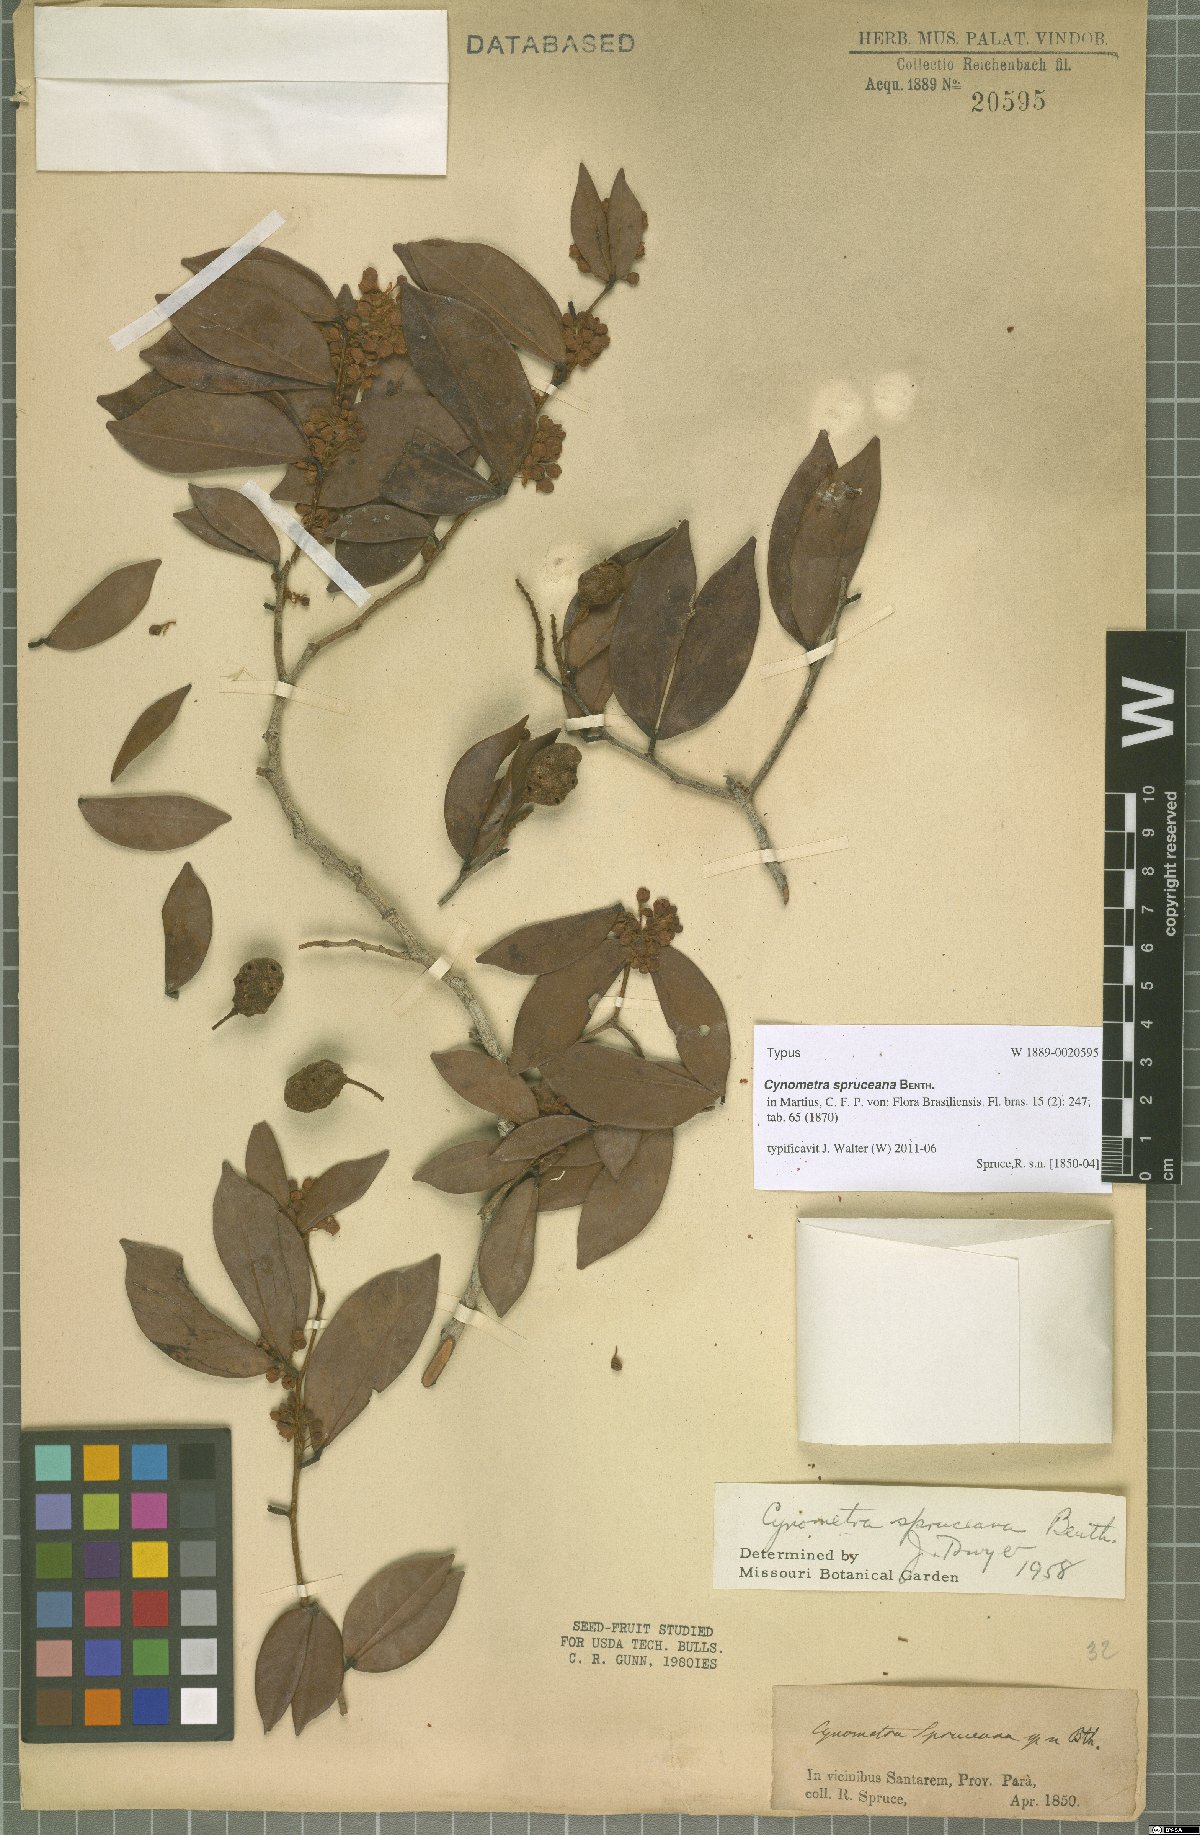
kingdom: Plantae
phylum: Tracheophyta
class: Magnoliopsida
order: Fabales
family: Fabaceae
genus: Cynometra
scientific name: Cynometra phaselocarpa
